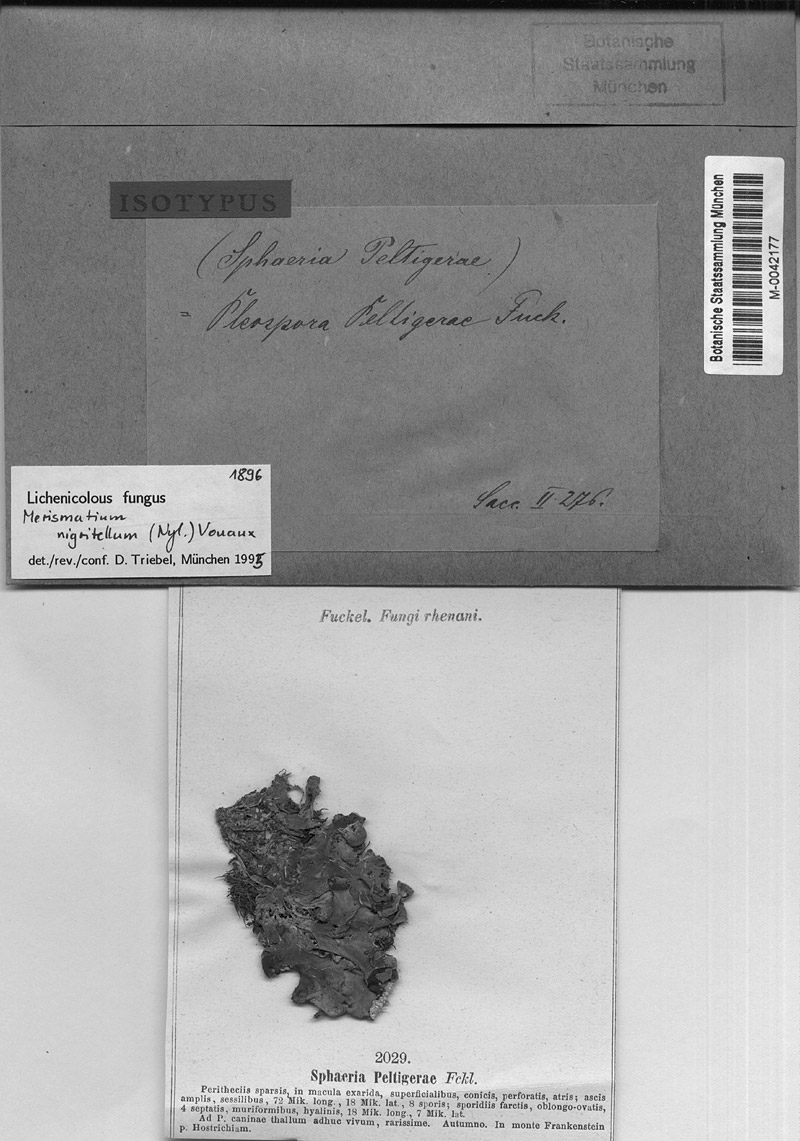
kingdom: Fungi
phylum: Ascomycota
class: Lecanoromycetes
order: Peltigerales
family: Peltigeraceae
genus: Peltigera
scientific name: Peltigera canina
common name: Dog pelt lichen
